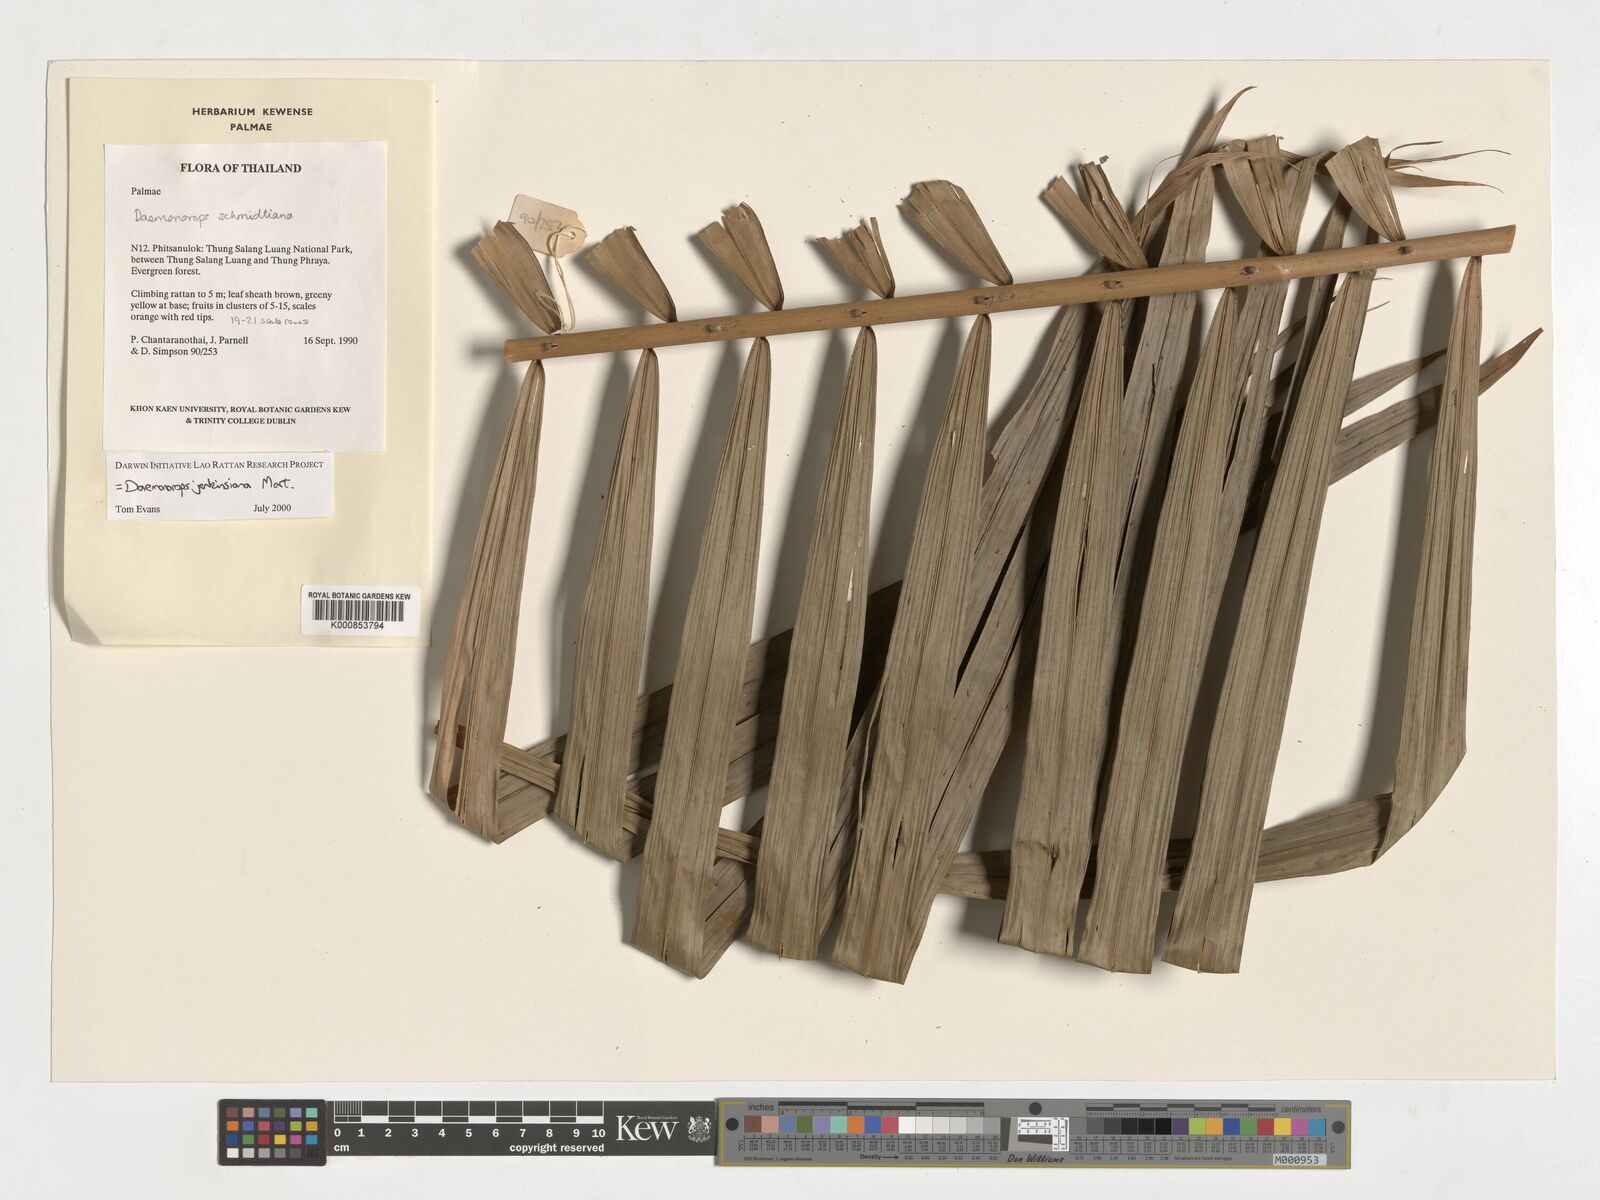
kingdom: Plantae
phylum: Tracheophyta
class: Liliopsida
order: Arecales
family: Arecaceae
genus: Calamus
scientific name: Calamus melanochaetes
